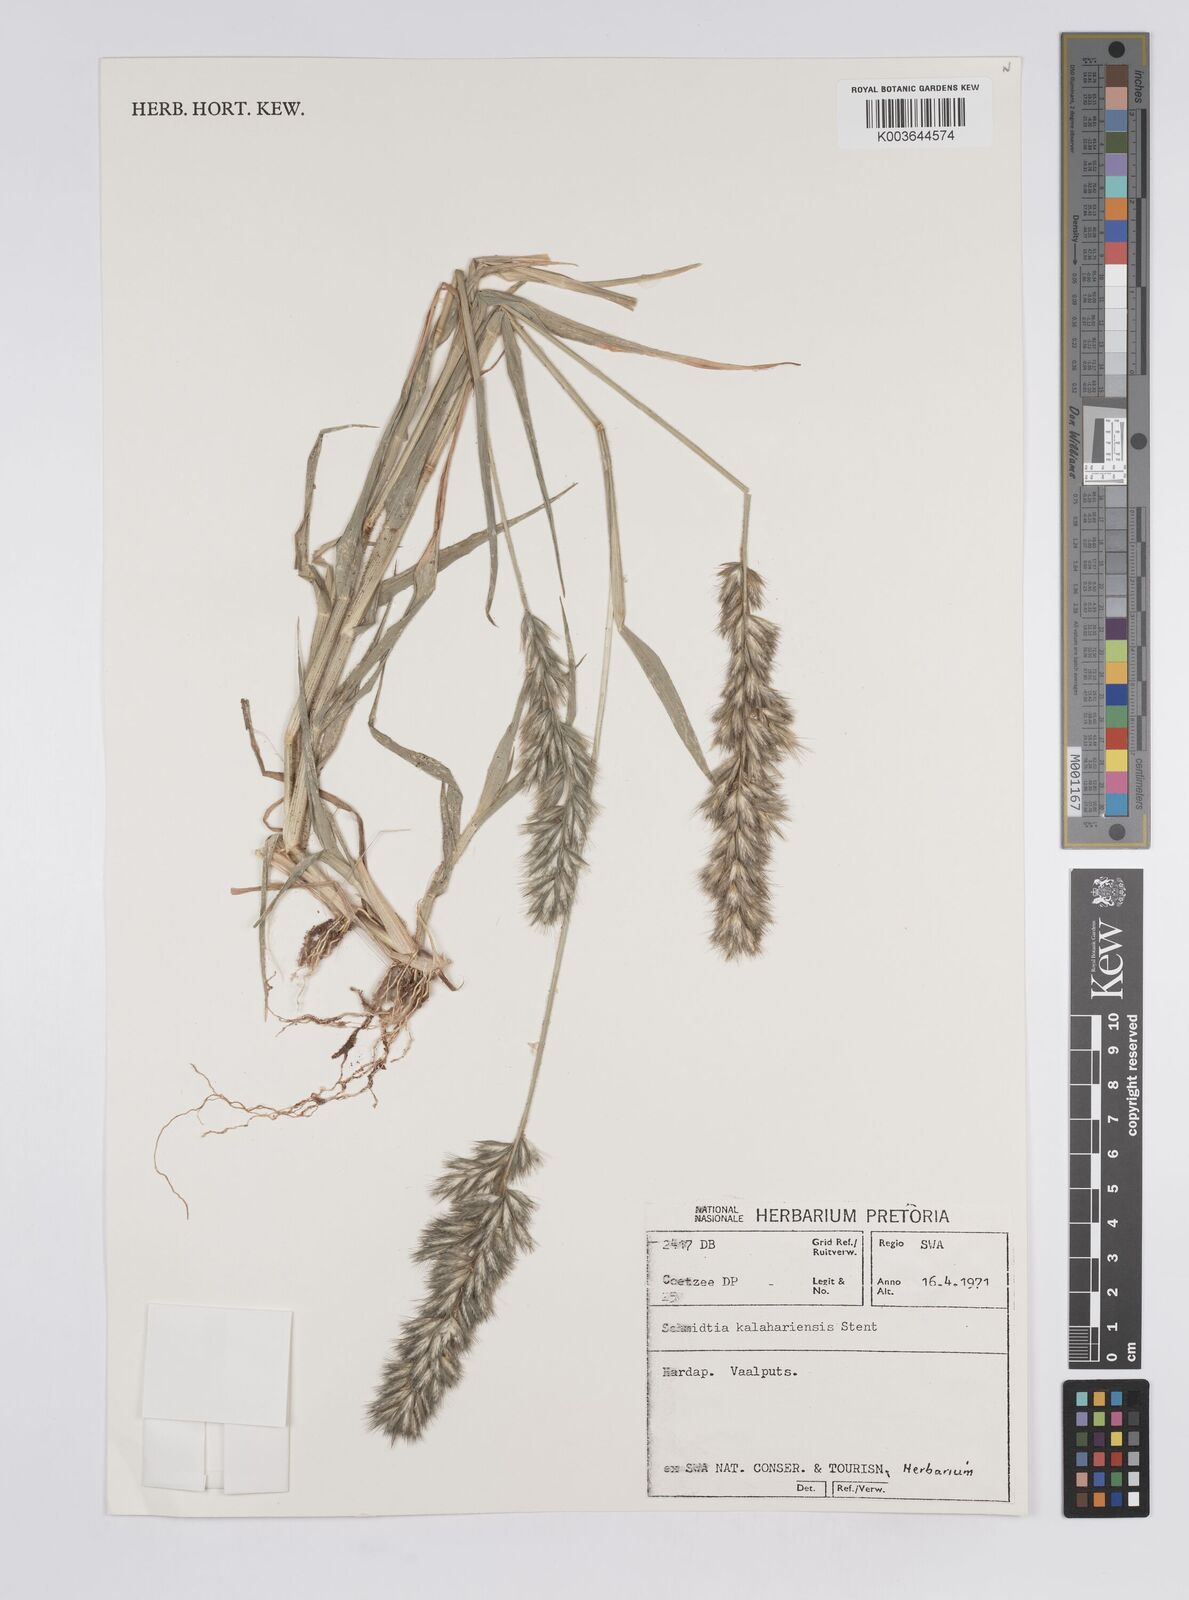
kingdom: Plantae
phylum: Tracheophyta
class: Liliopsida
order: Poales
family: Poaceae
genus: Schmidtia
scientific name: Schmidtia kalahariensis
